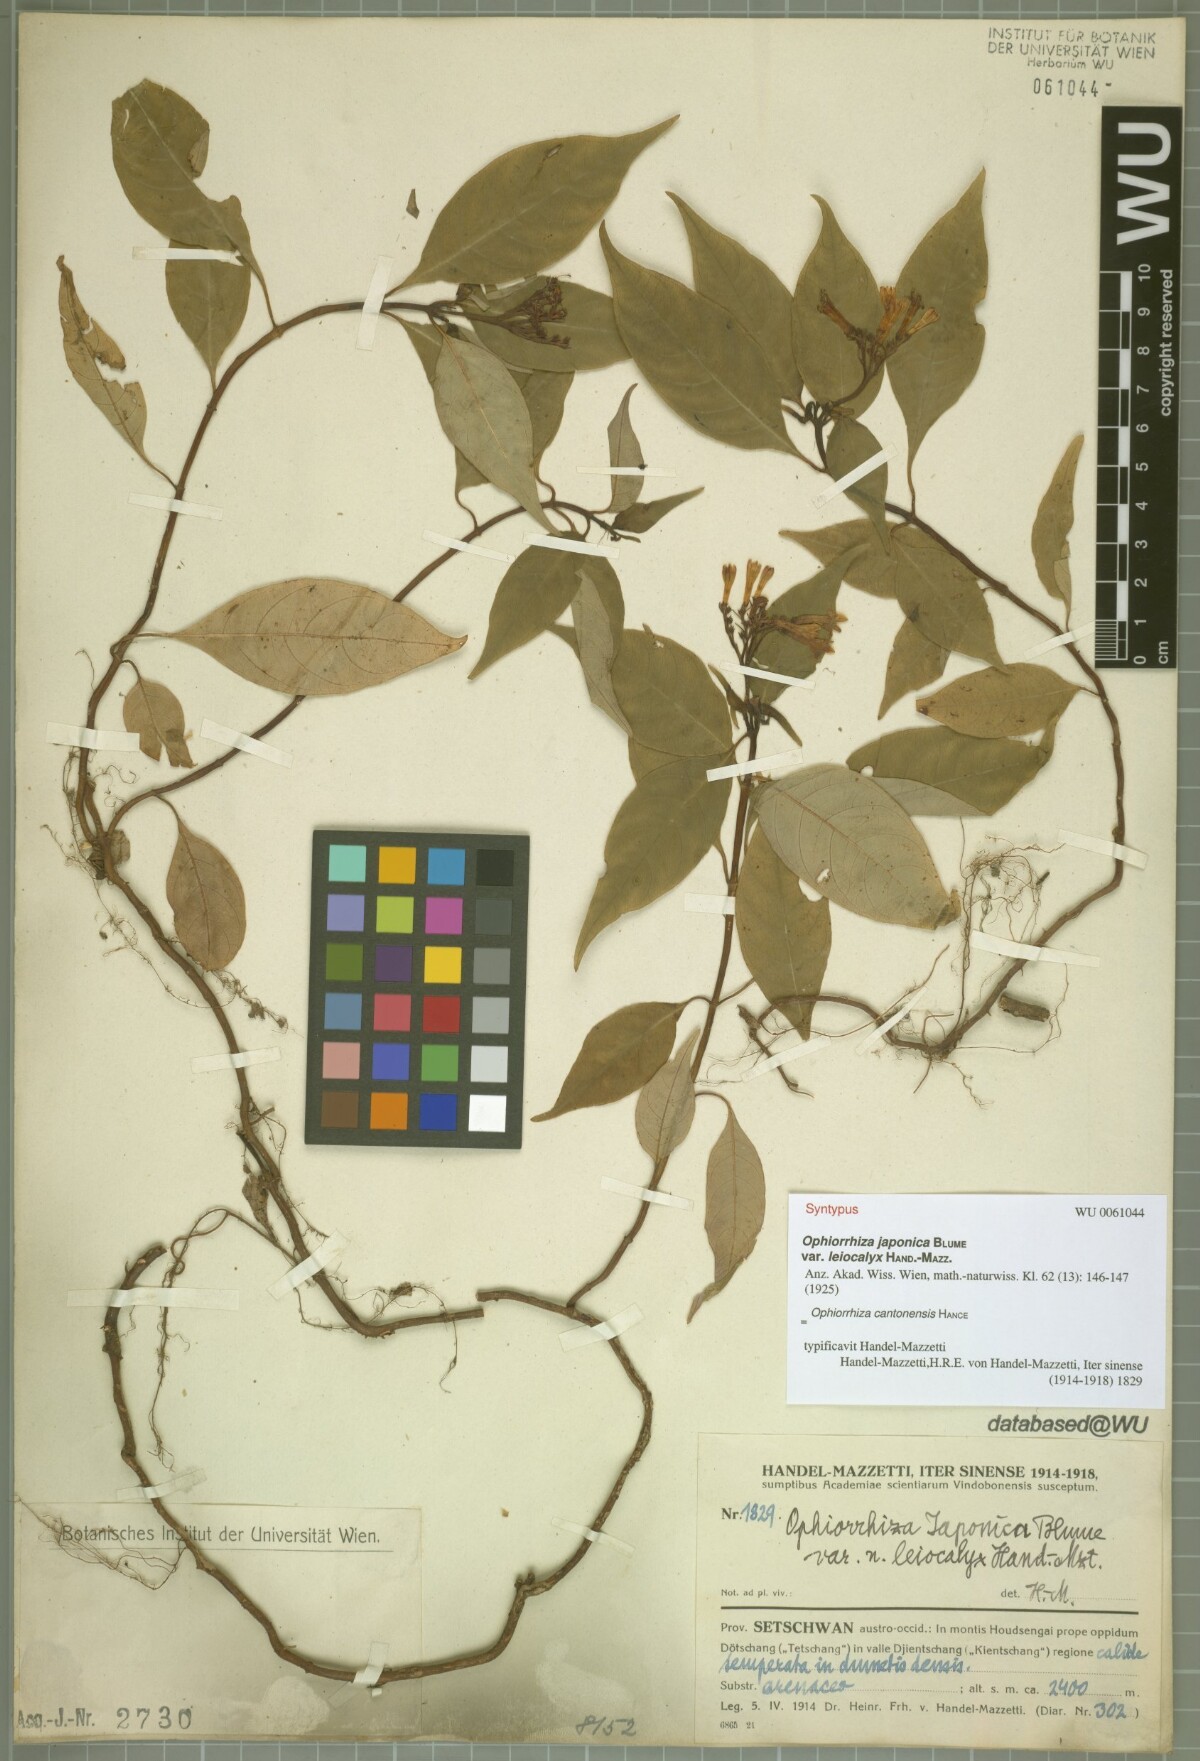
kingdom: Plantae
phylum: Tracheophyta
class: Magnoliopsida
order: Gentianales
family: Rubiaceae
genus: Ophiorrhiza
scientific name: Ophiorrhiza japonica
